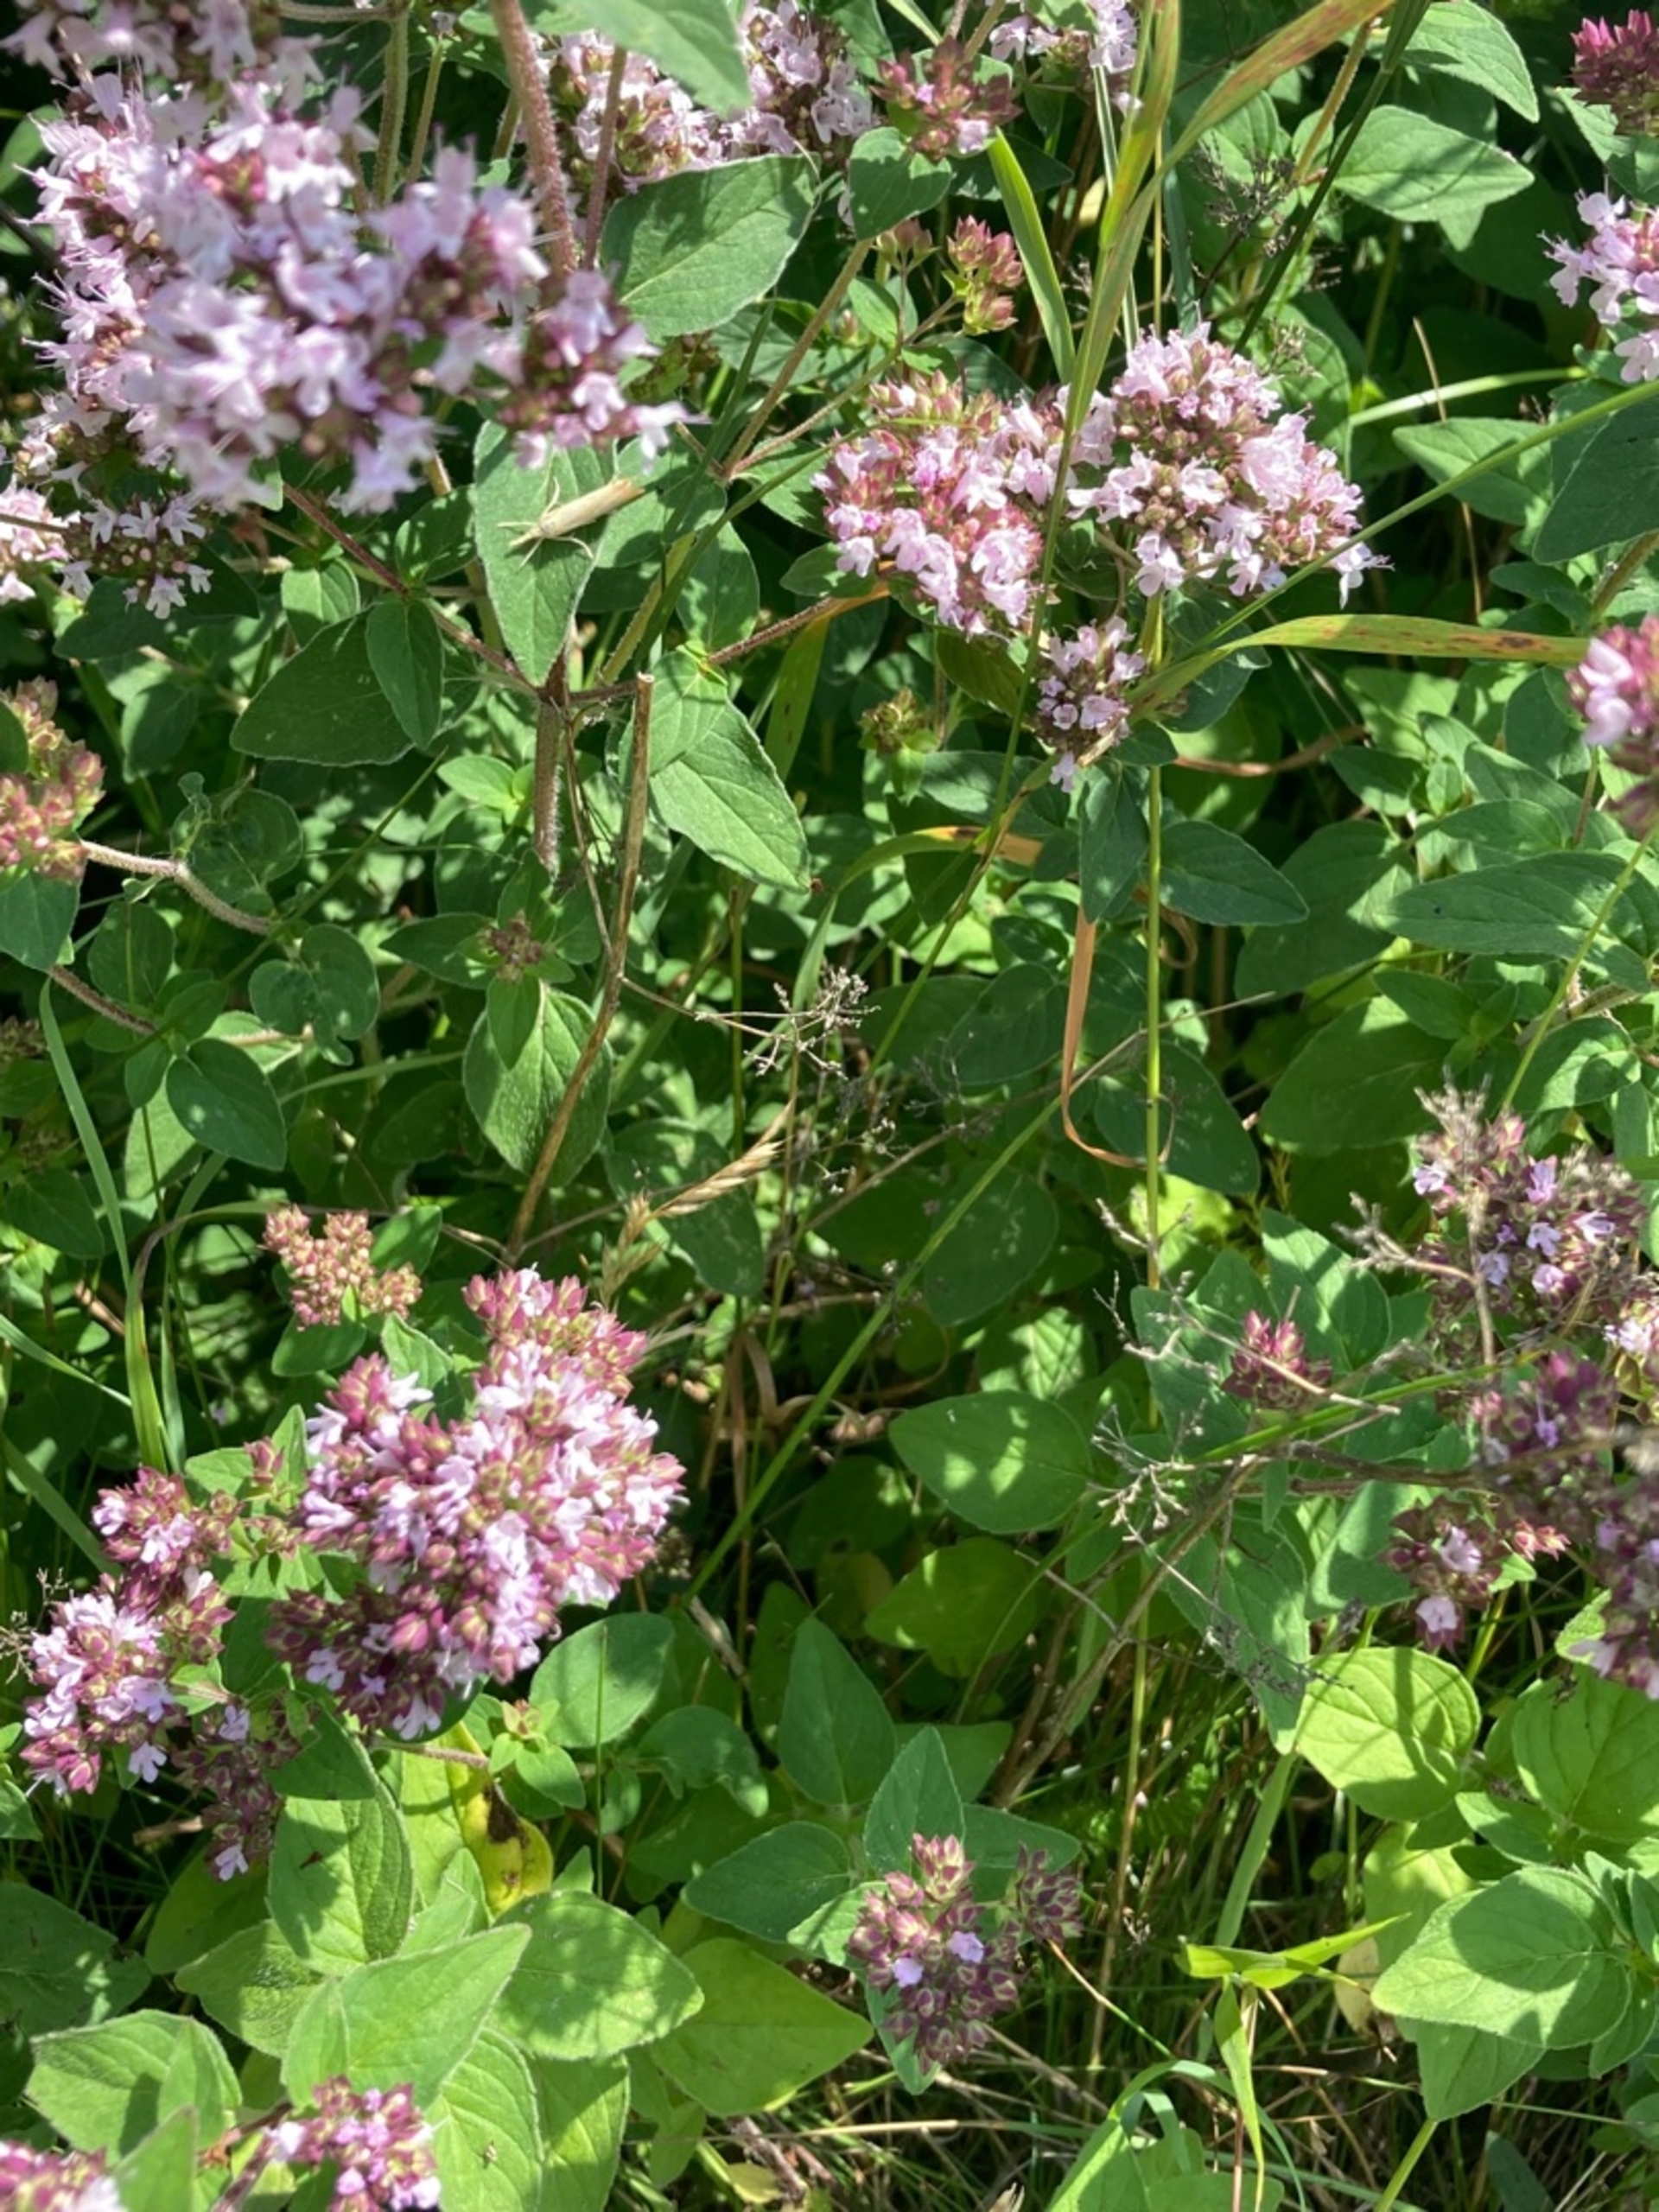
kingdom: Plantae
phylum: Tracheophyta
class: Magnoliopsida
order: Lamiales
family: Lamiaceae
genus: Origanum
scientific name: Origanum vulgare
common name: Merian
